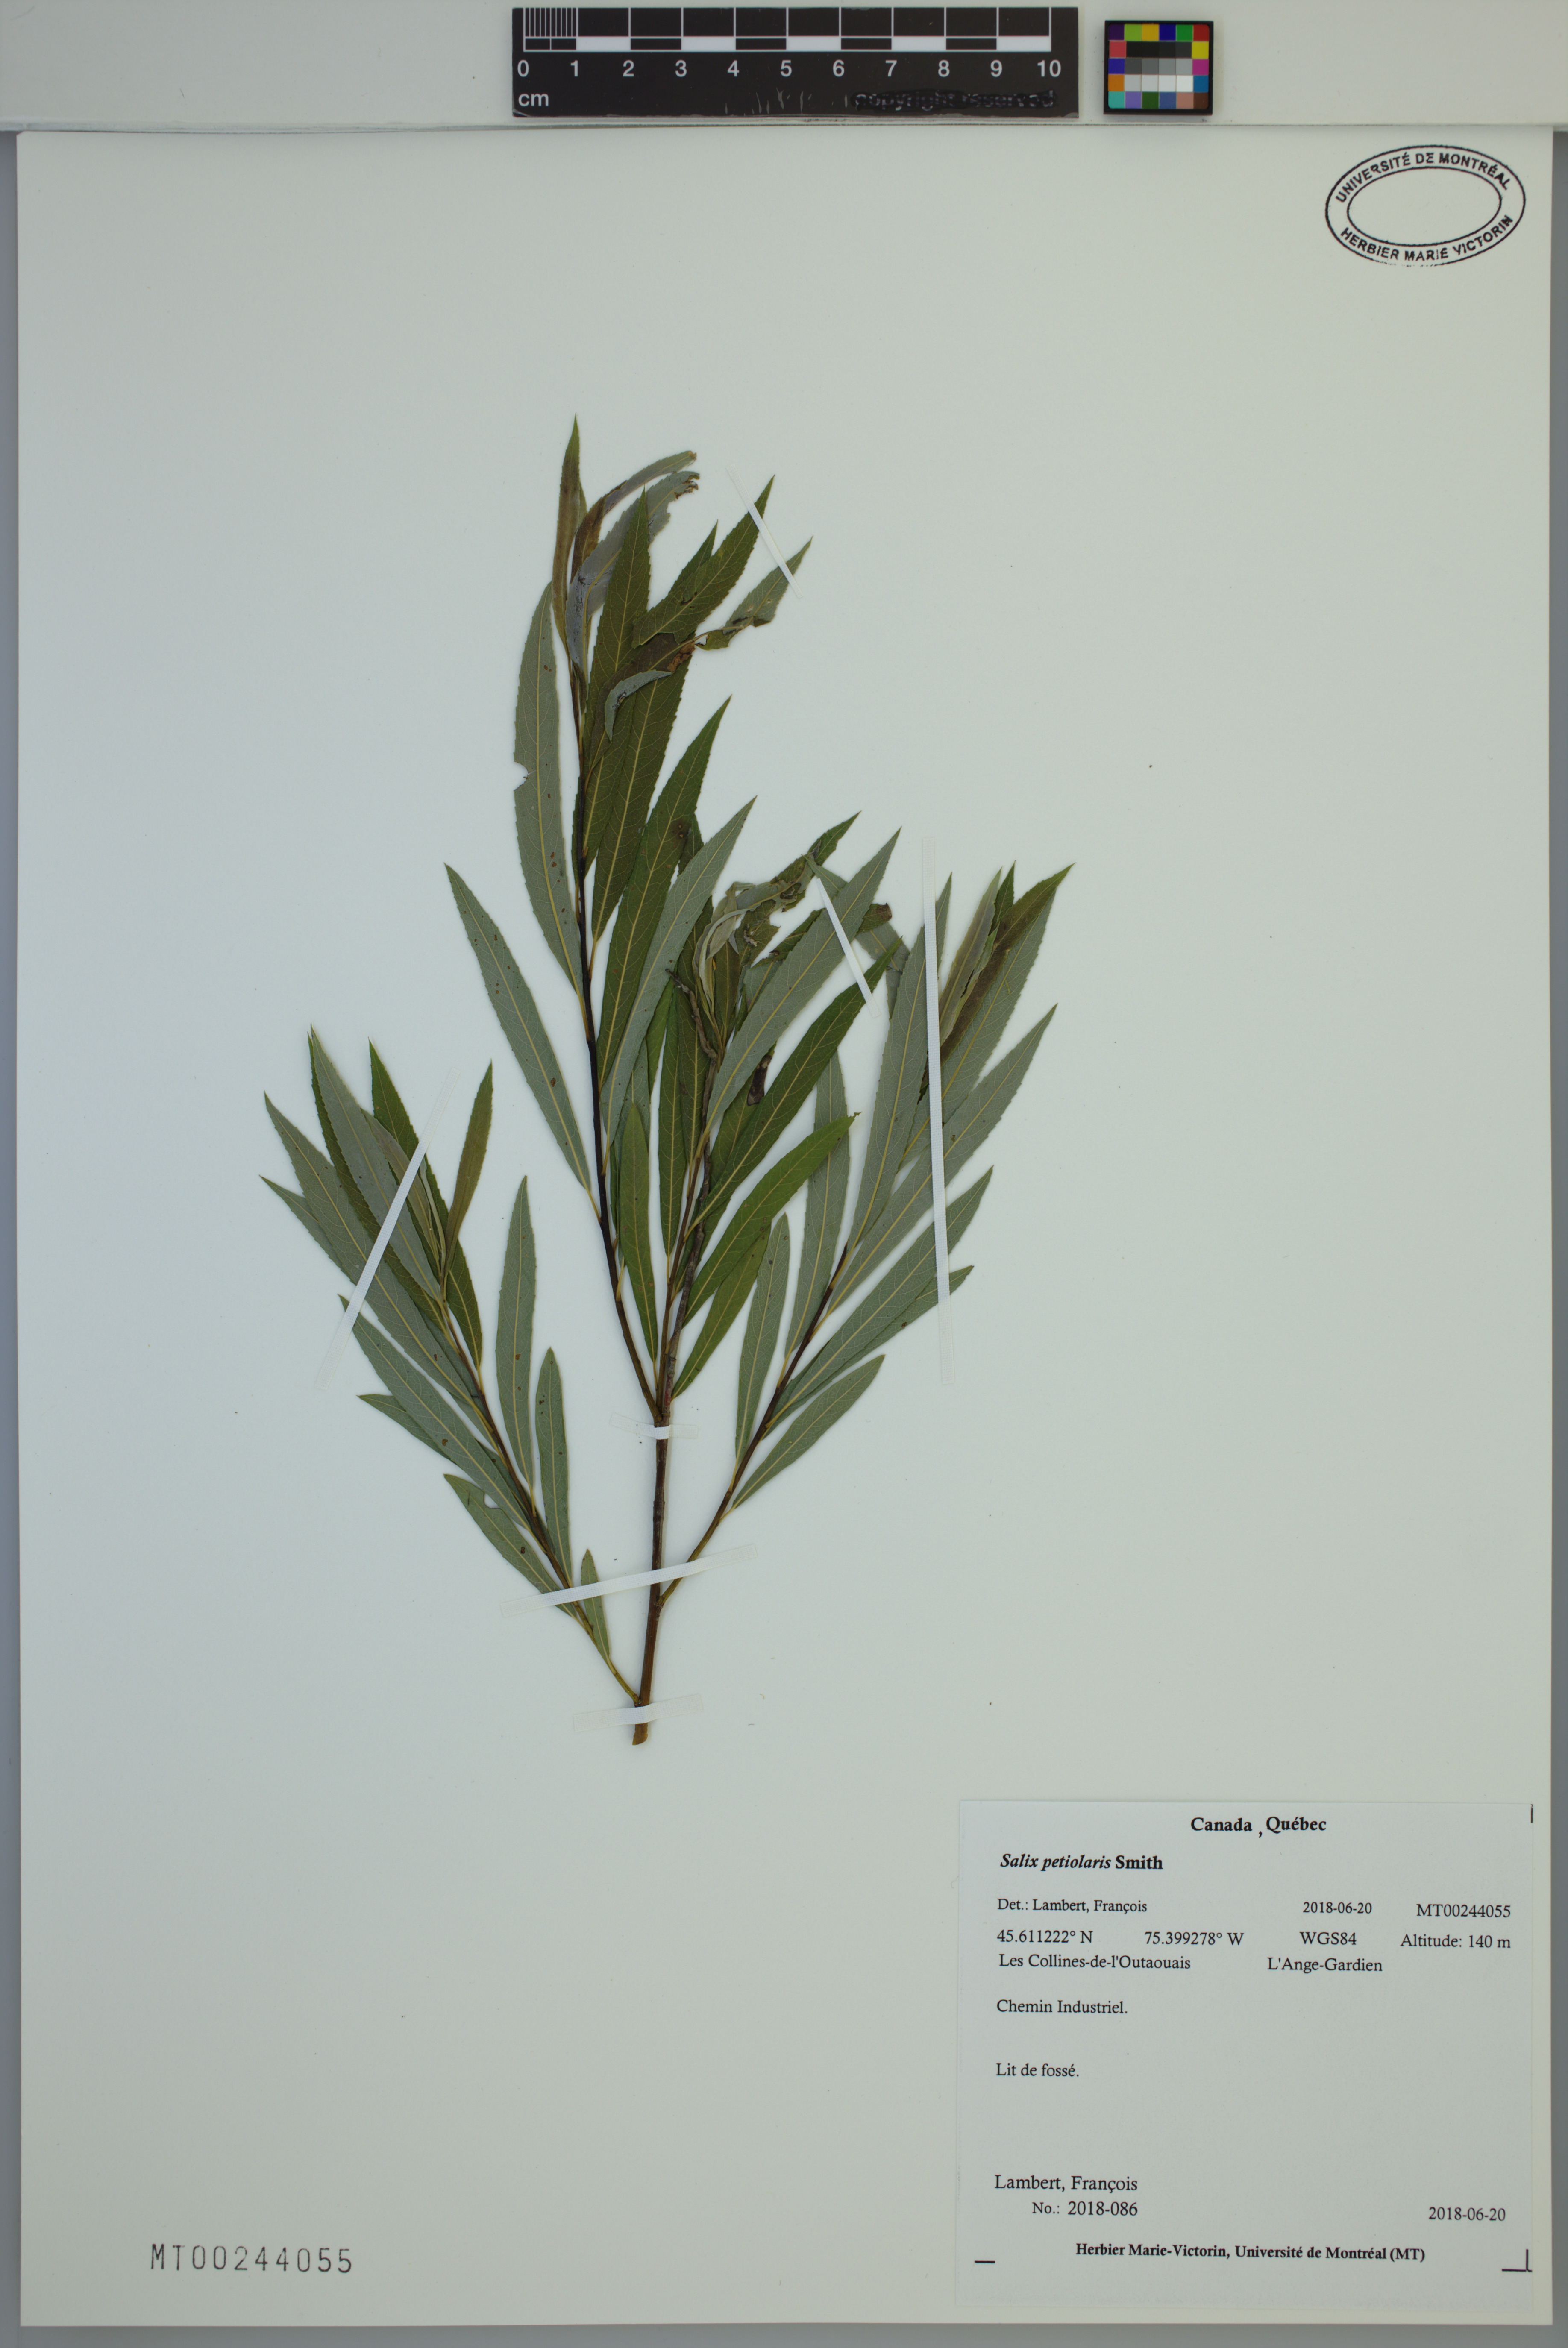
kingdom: Plantae
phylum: Tracheophyta
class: Magnoliopsida
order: Malpighiales
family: Salicaceae
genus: Salix
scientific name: Salix petiolaris
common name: Slender willow
